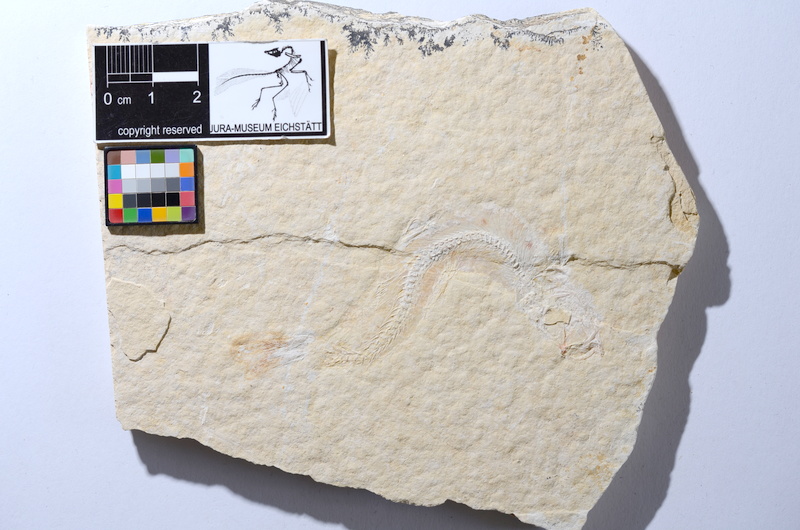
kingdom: Animalia
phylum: Chordata
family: Ascalaboidae
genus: Tharsis
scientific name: Tharsis dubius
